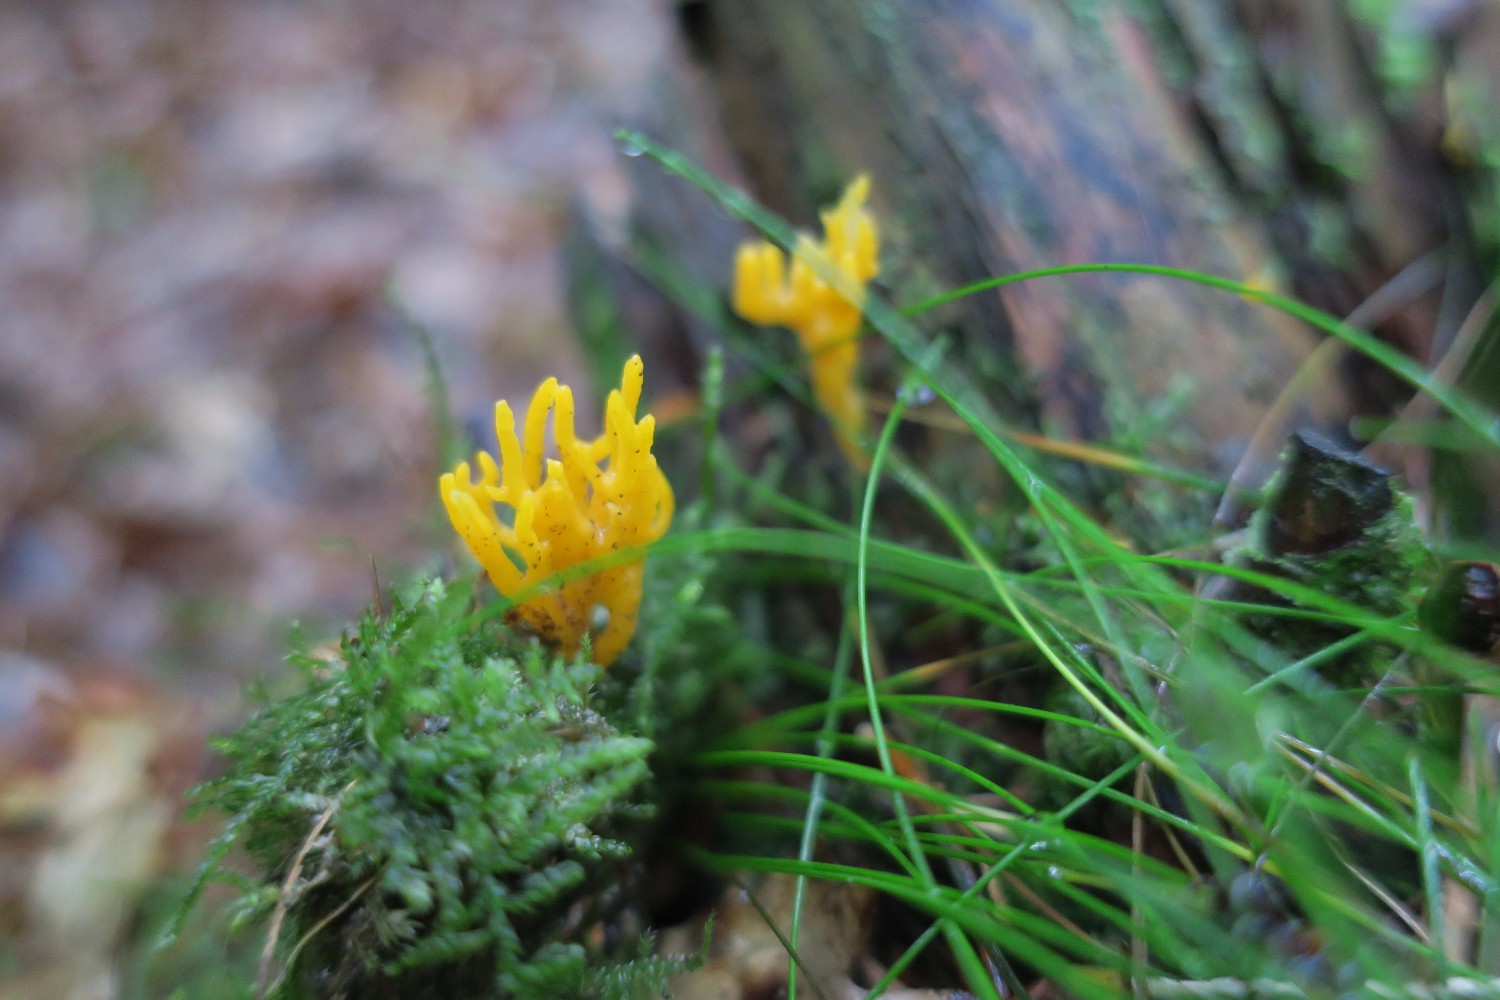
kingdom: Fungi
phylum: Basidiomycota
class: Dacrymycetes
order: Dacrymycetales
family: Dacrymycetaceae
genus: Calocera
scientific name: Calocera viscosa
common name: almindelig guldgaffel
